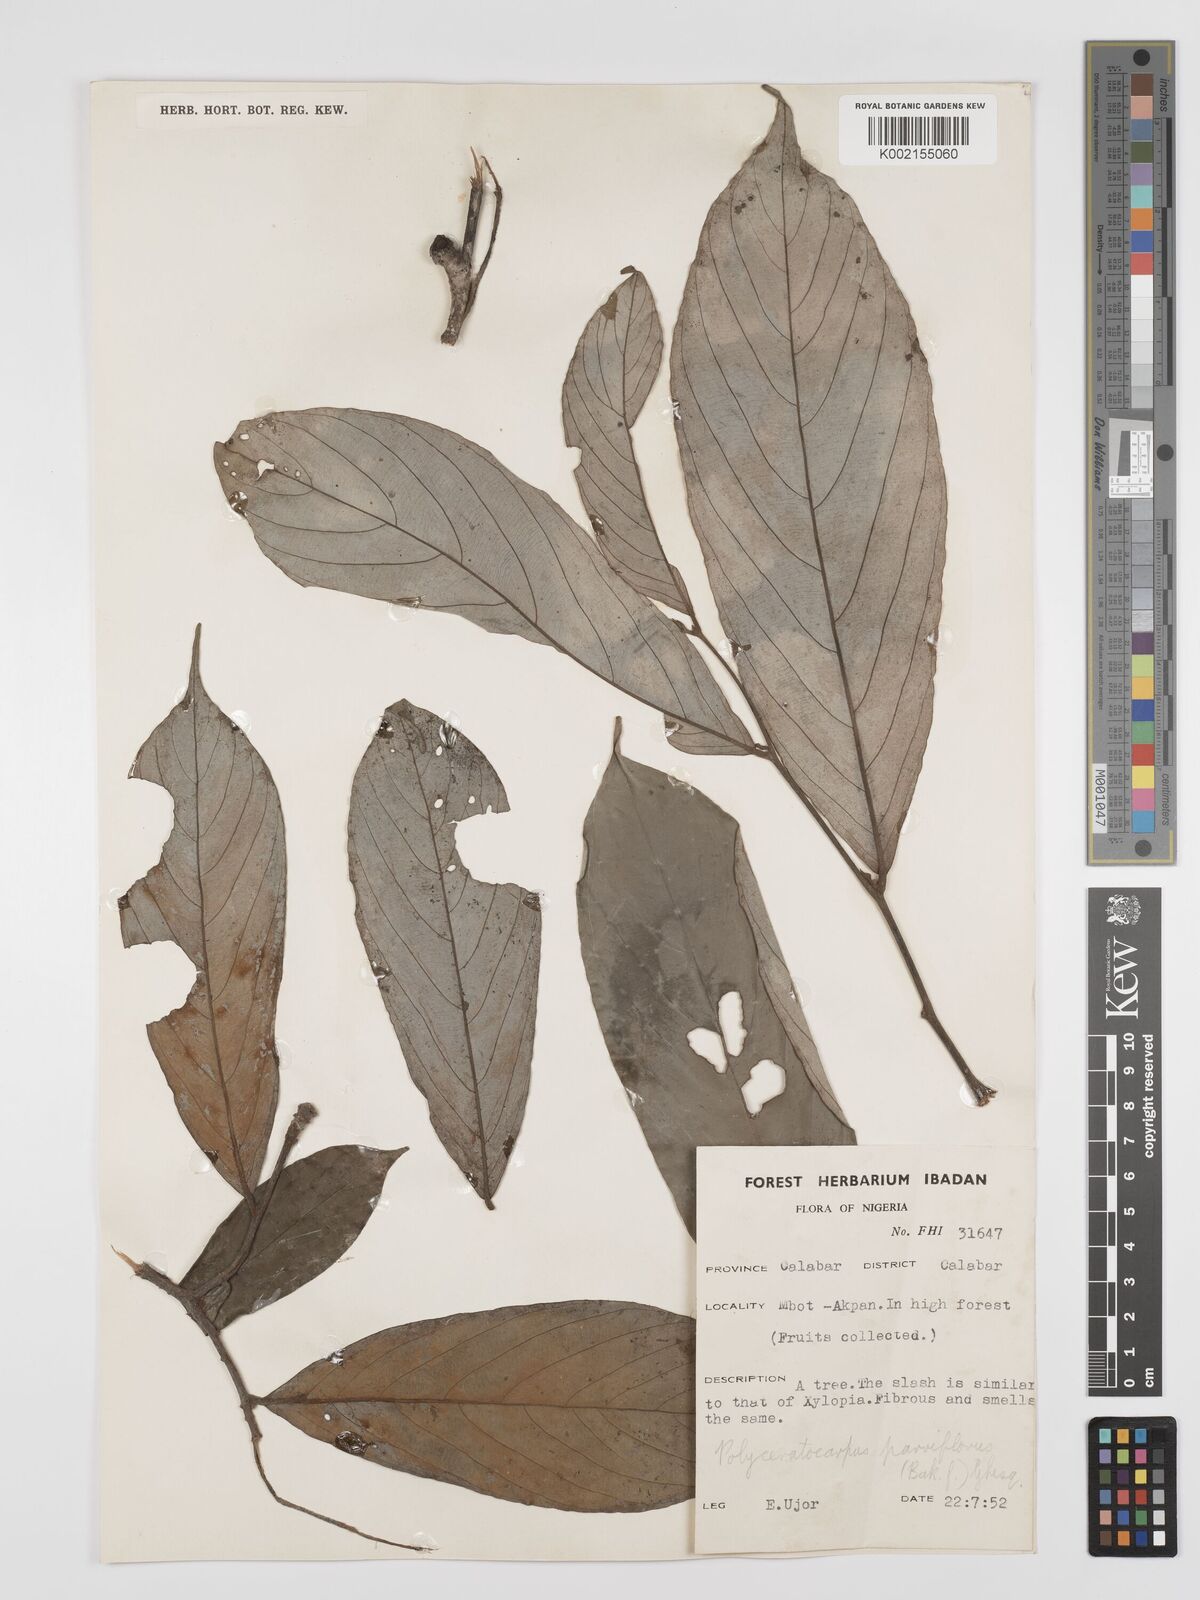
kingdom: Plantae
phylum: Tracheophyta
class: Magnoliopsida
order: Magnoliales
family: Annonaceae
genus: Polyceratocarpus
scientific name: Polyceratocarpus parviflorus
